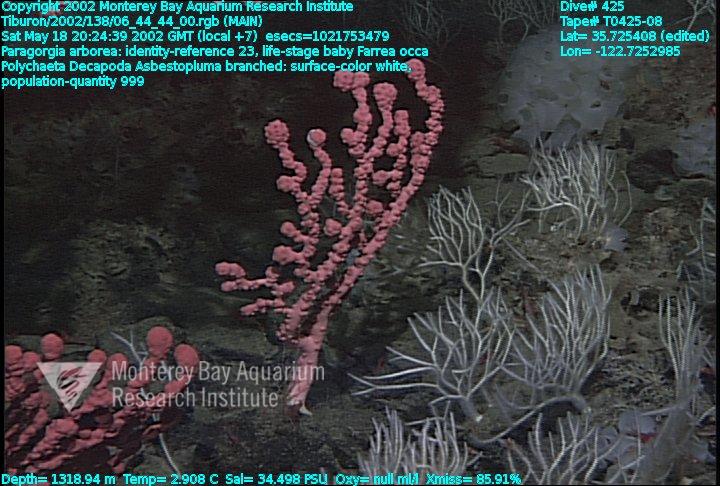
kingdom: Animalia
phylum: Porifera
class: Hexactinellida
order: Sceptrulophora
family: Farreidae
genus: Farrea
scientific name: Farrea occa
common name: Reversed glass sponge
